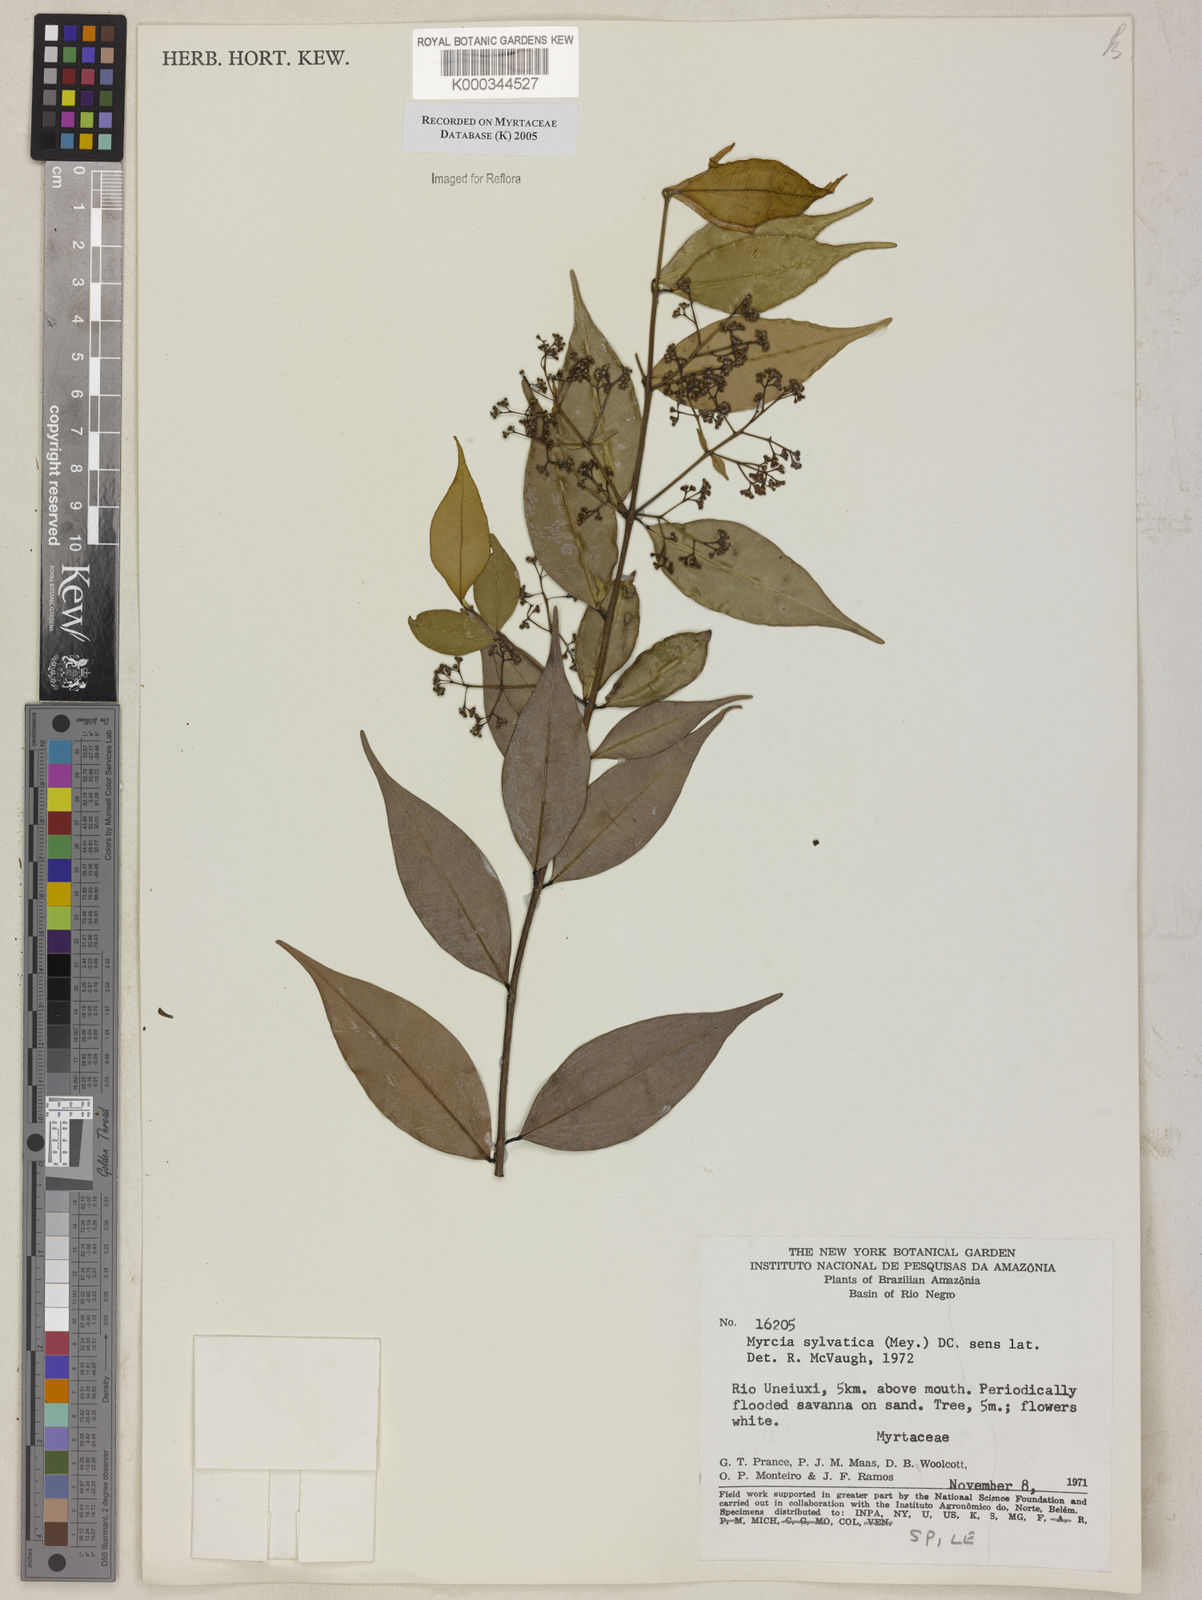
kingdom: Plantae
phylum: Tracheophyta
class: Magnoliopsida
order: Myrtales
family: Myrtaceae
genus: Myrcia
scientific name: Myrcia sylvatica
